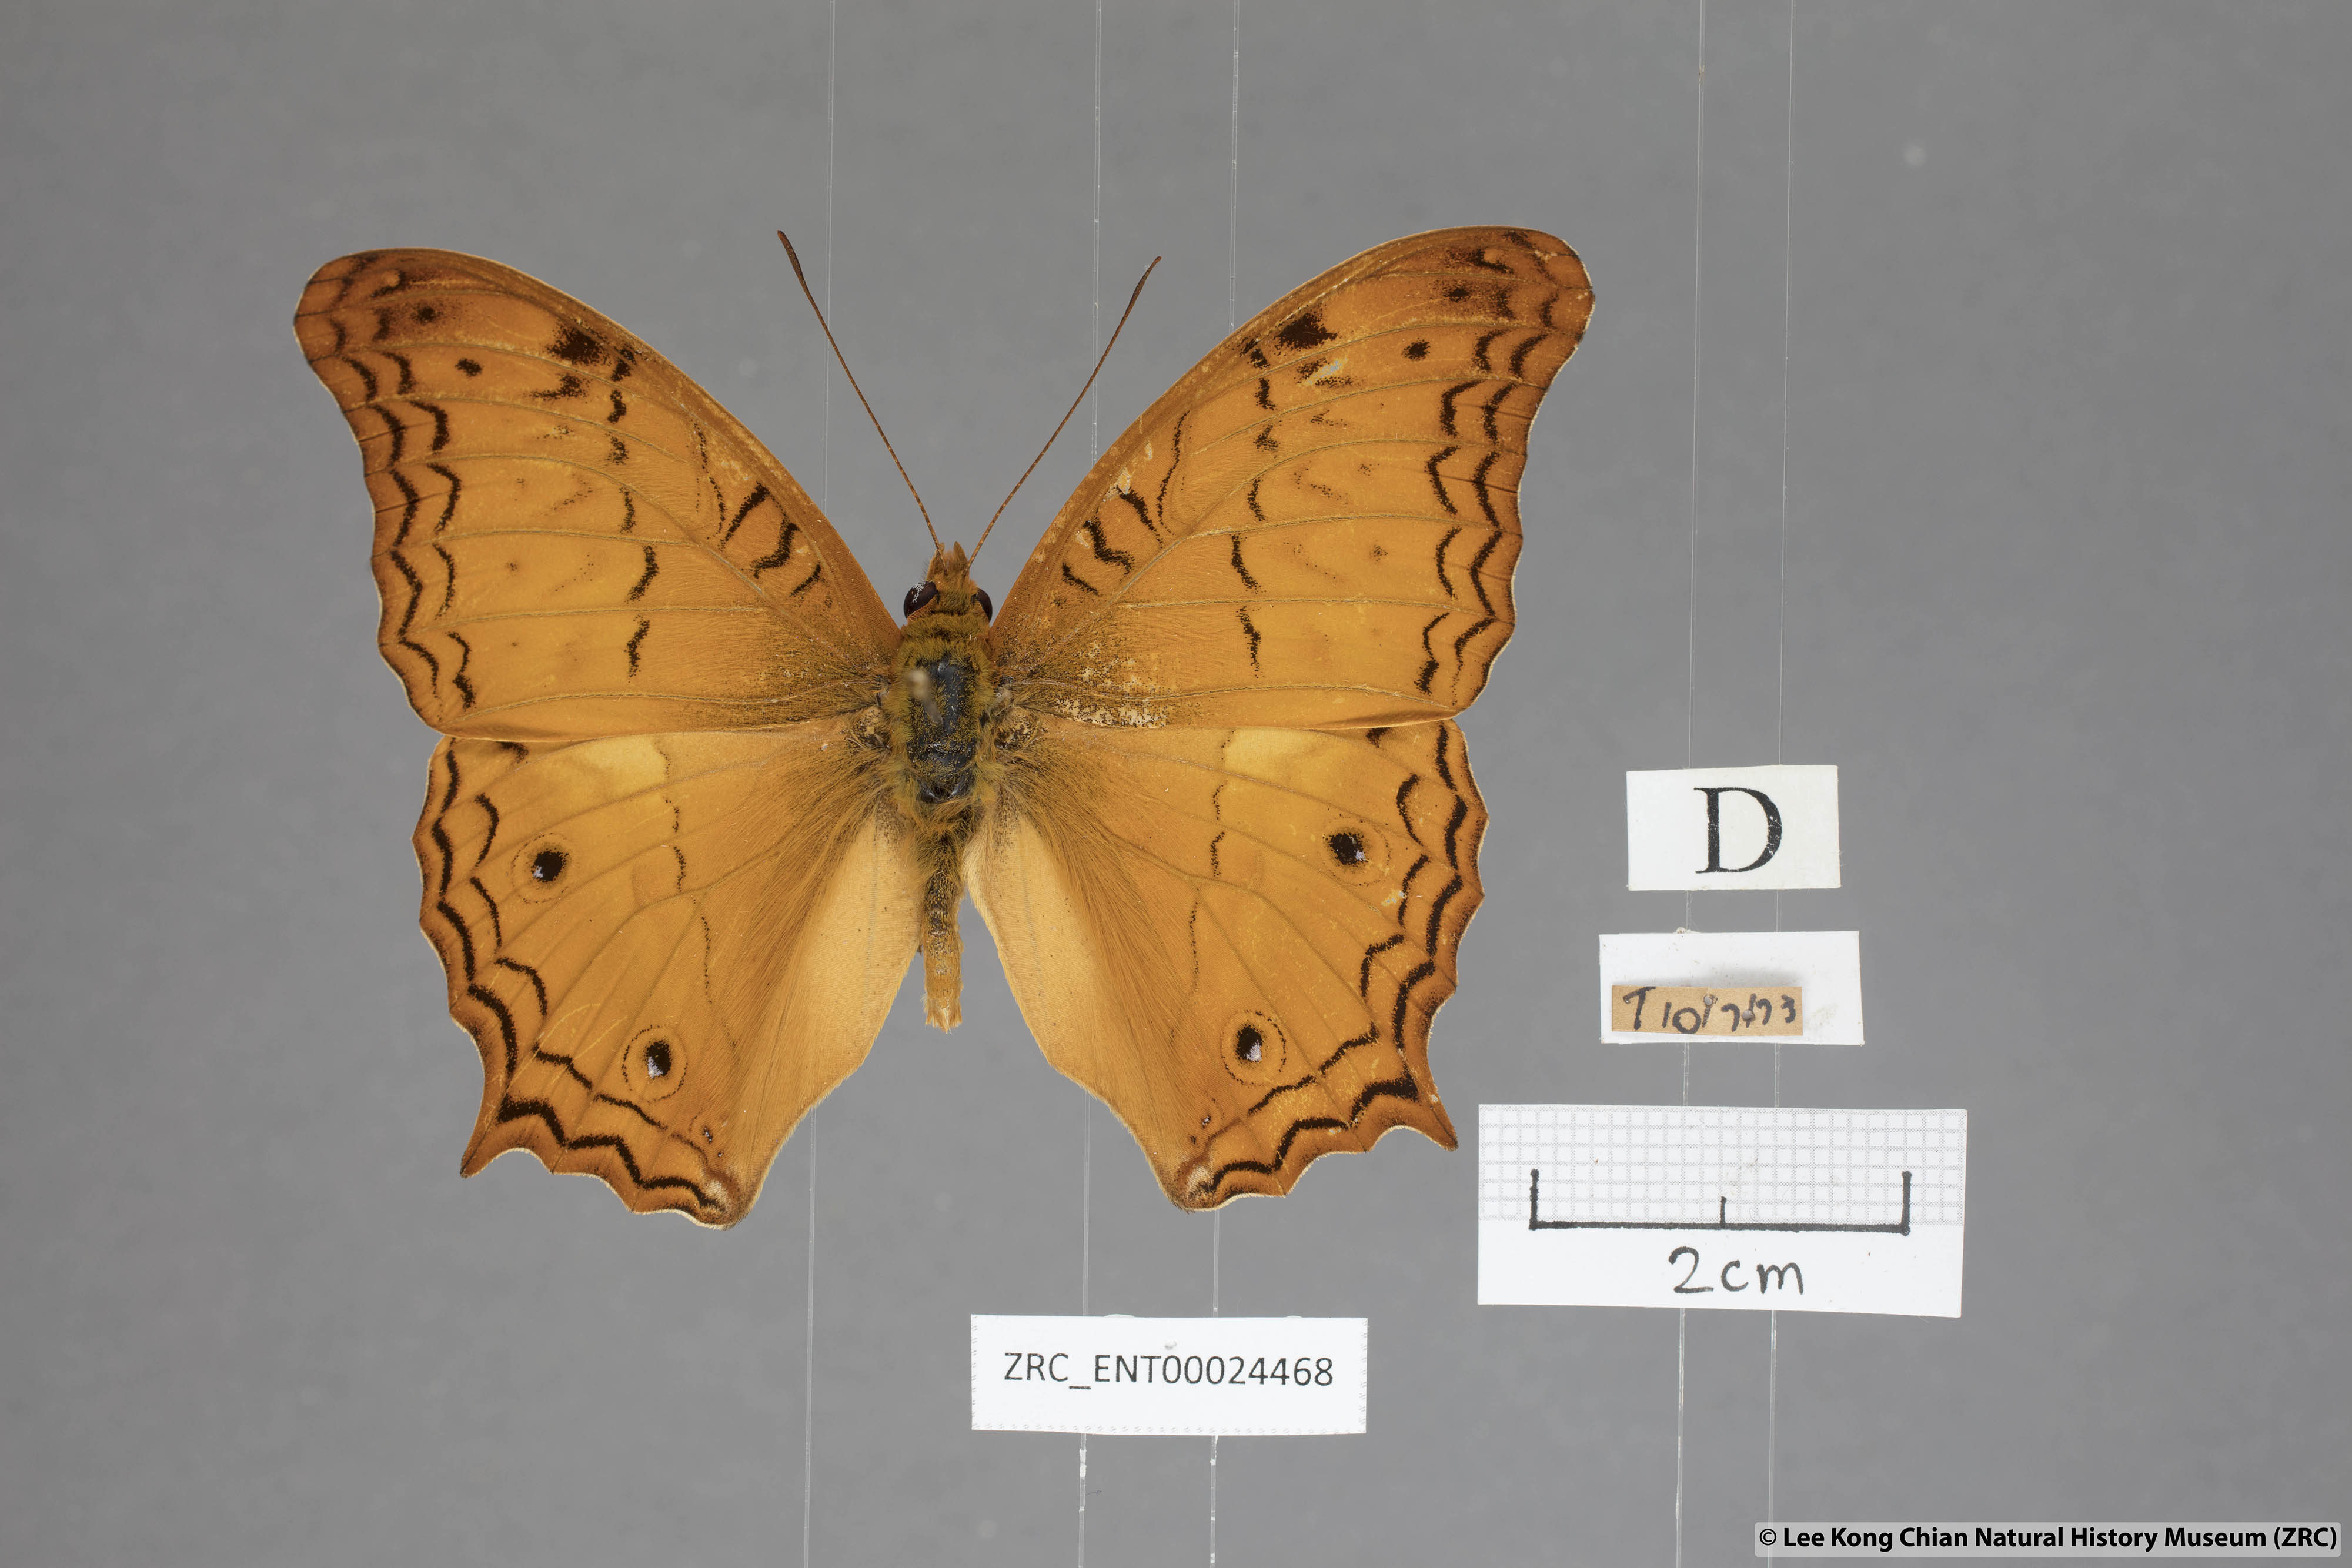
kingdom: Animalia
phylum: Arthropoda
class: Insecta
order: Lepidoptera
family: Nymphalidae
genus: Vindula
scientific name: Vindula deione
